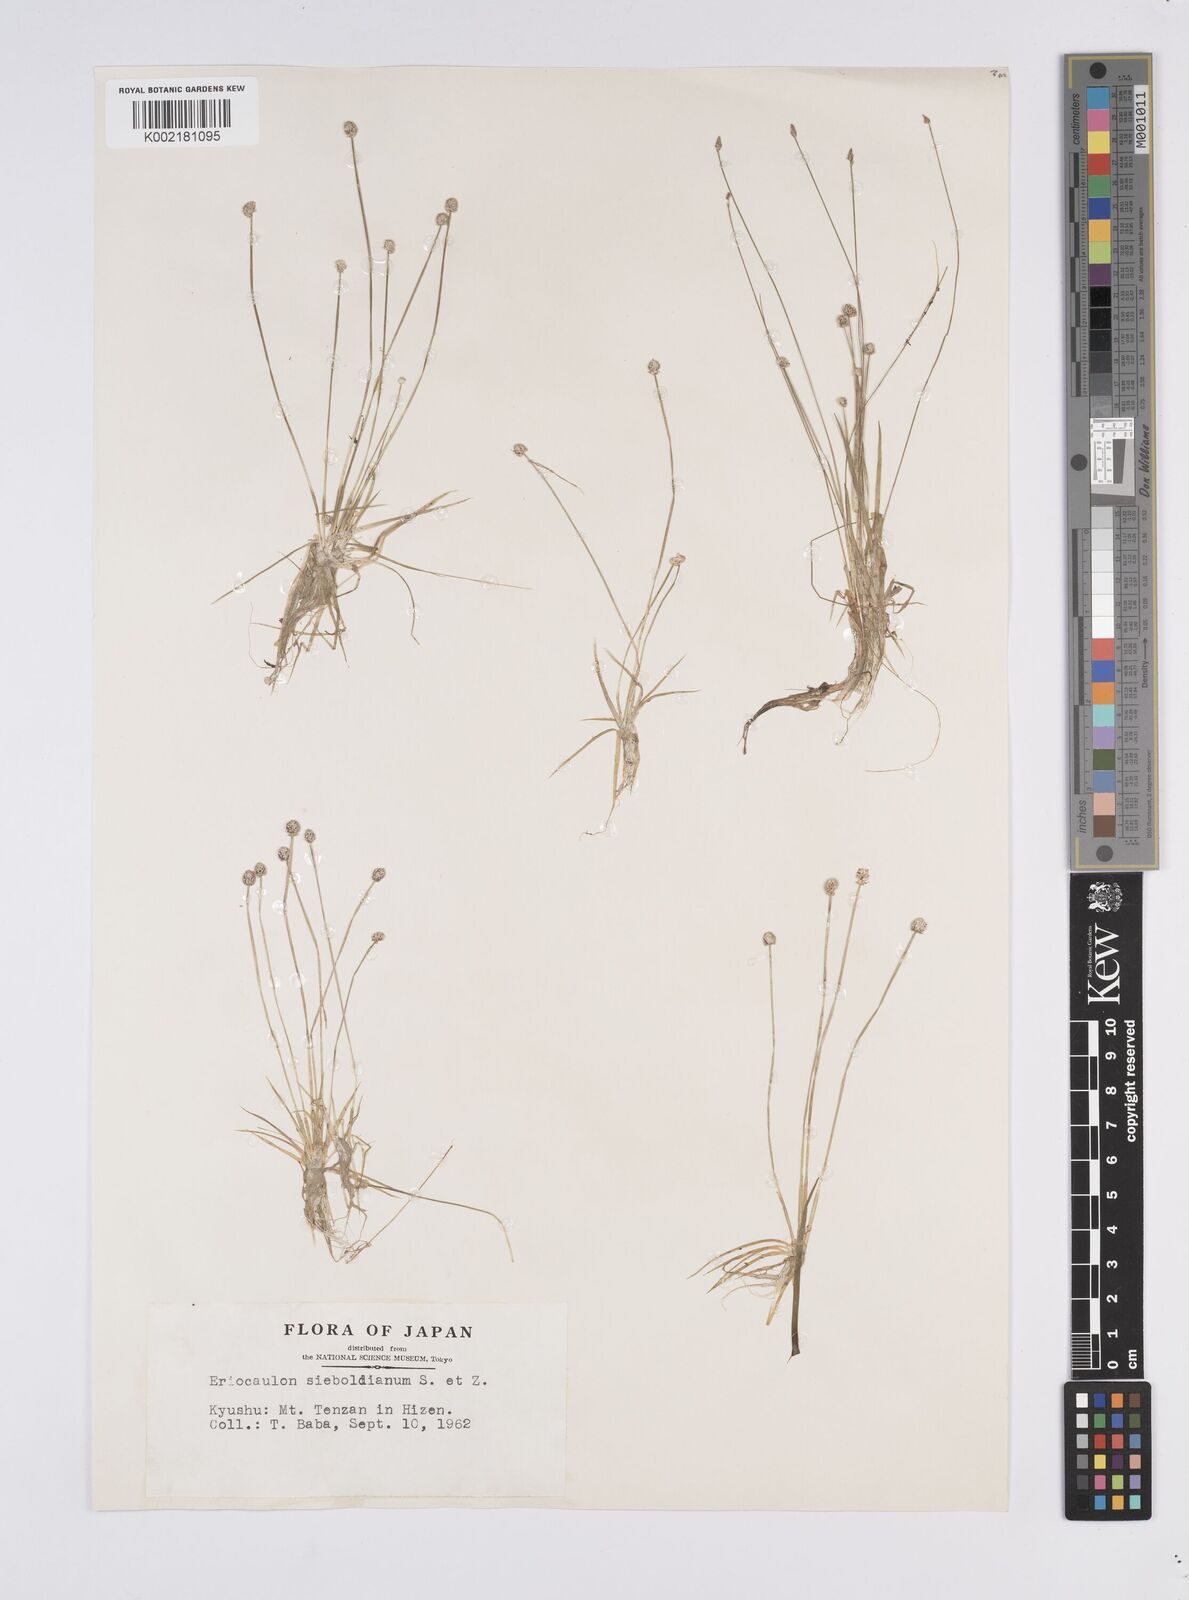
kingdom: Plantae
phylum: Tracheophyta
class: Liliopsida
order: Poales
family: Eriocaulaceae
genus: Eriocaulon
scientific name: Eriocaulon cinereum
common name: Ashy pipewort
